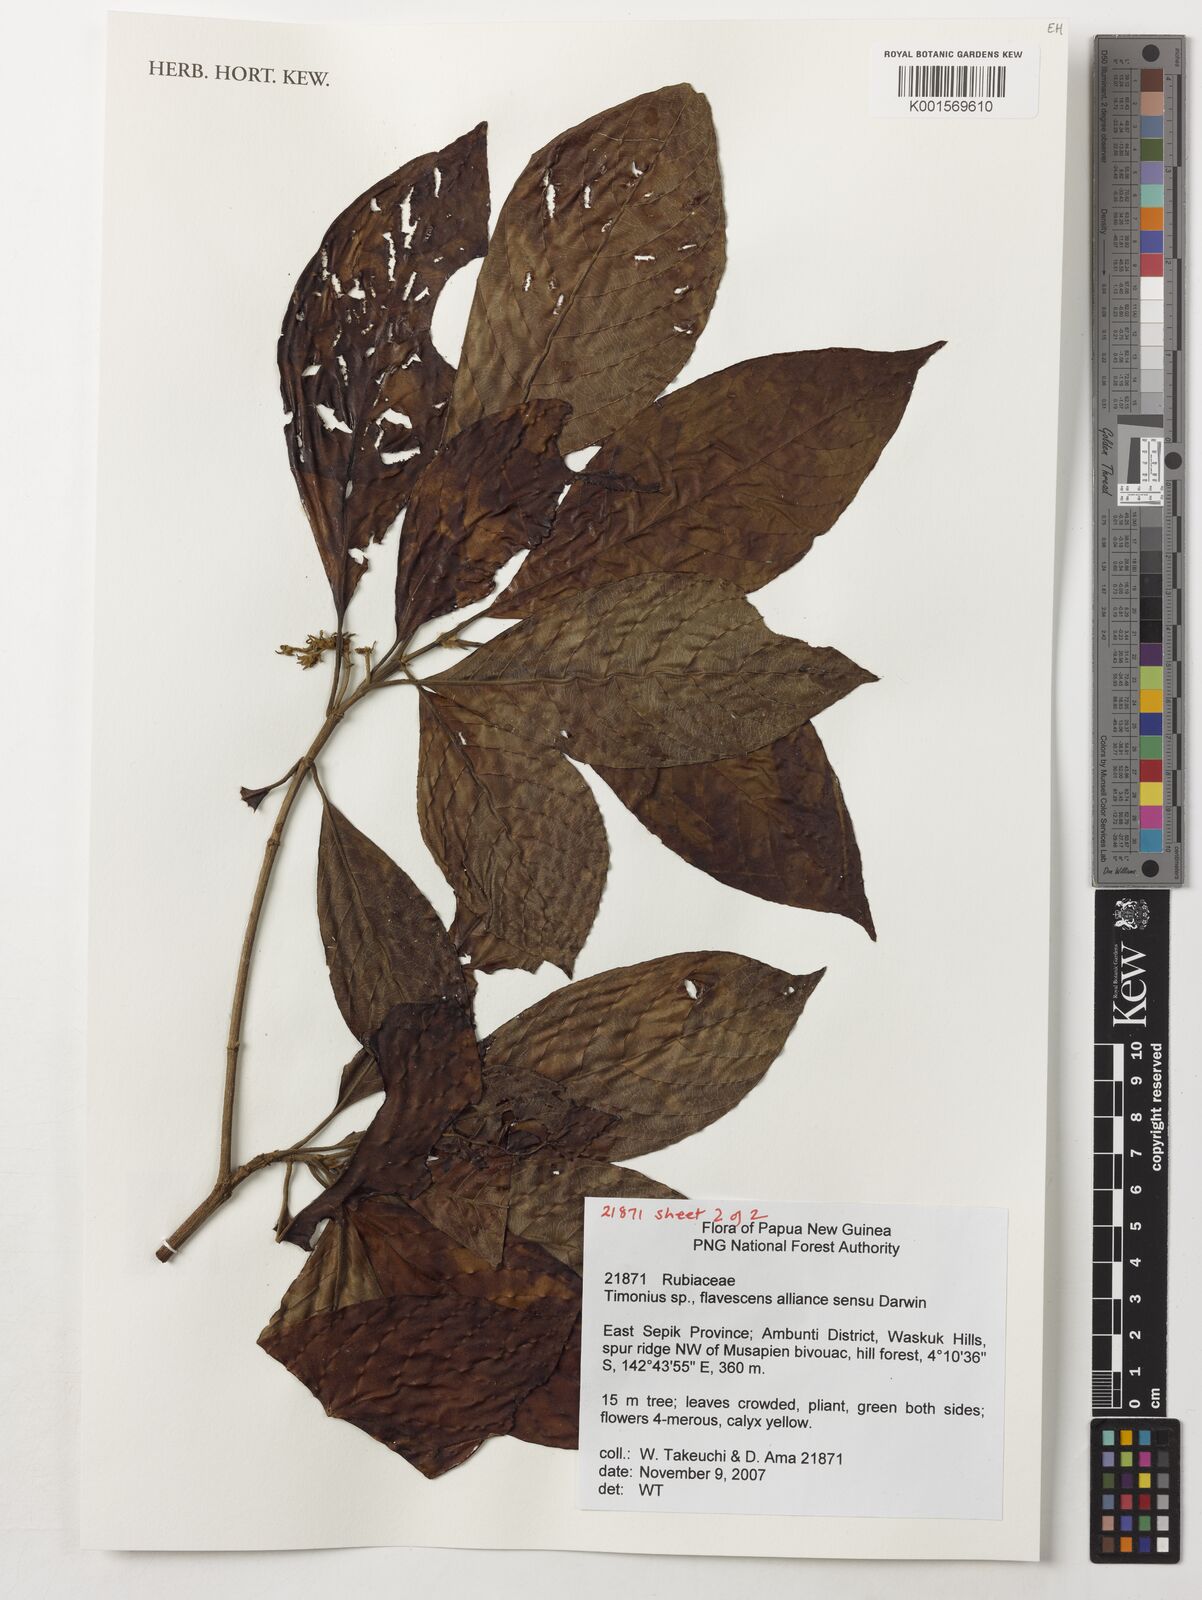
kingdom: Plantae
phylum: Tracheophyta
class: Magnoliopsida
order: Gentianales
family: Rubiaceae
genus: Timonius
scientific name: Timonius
